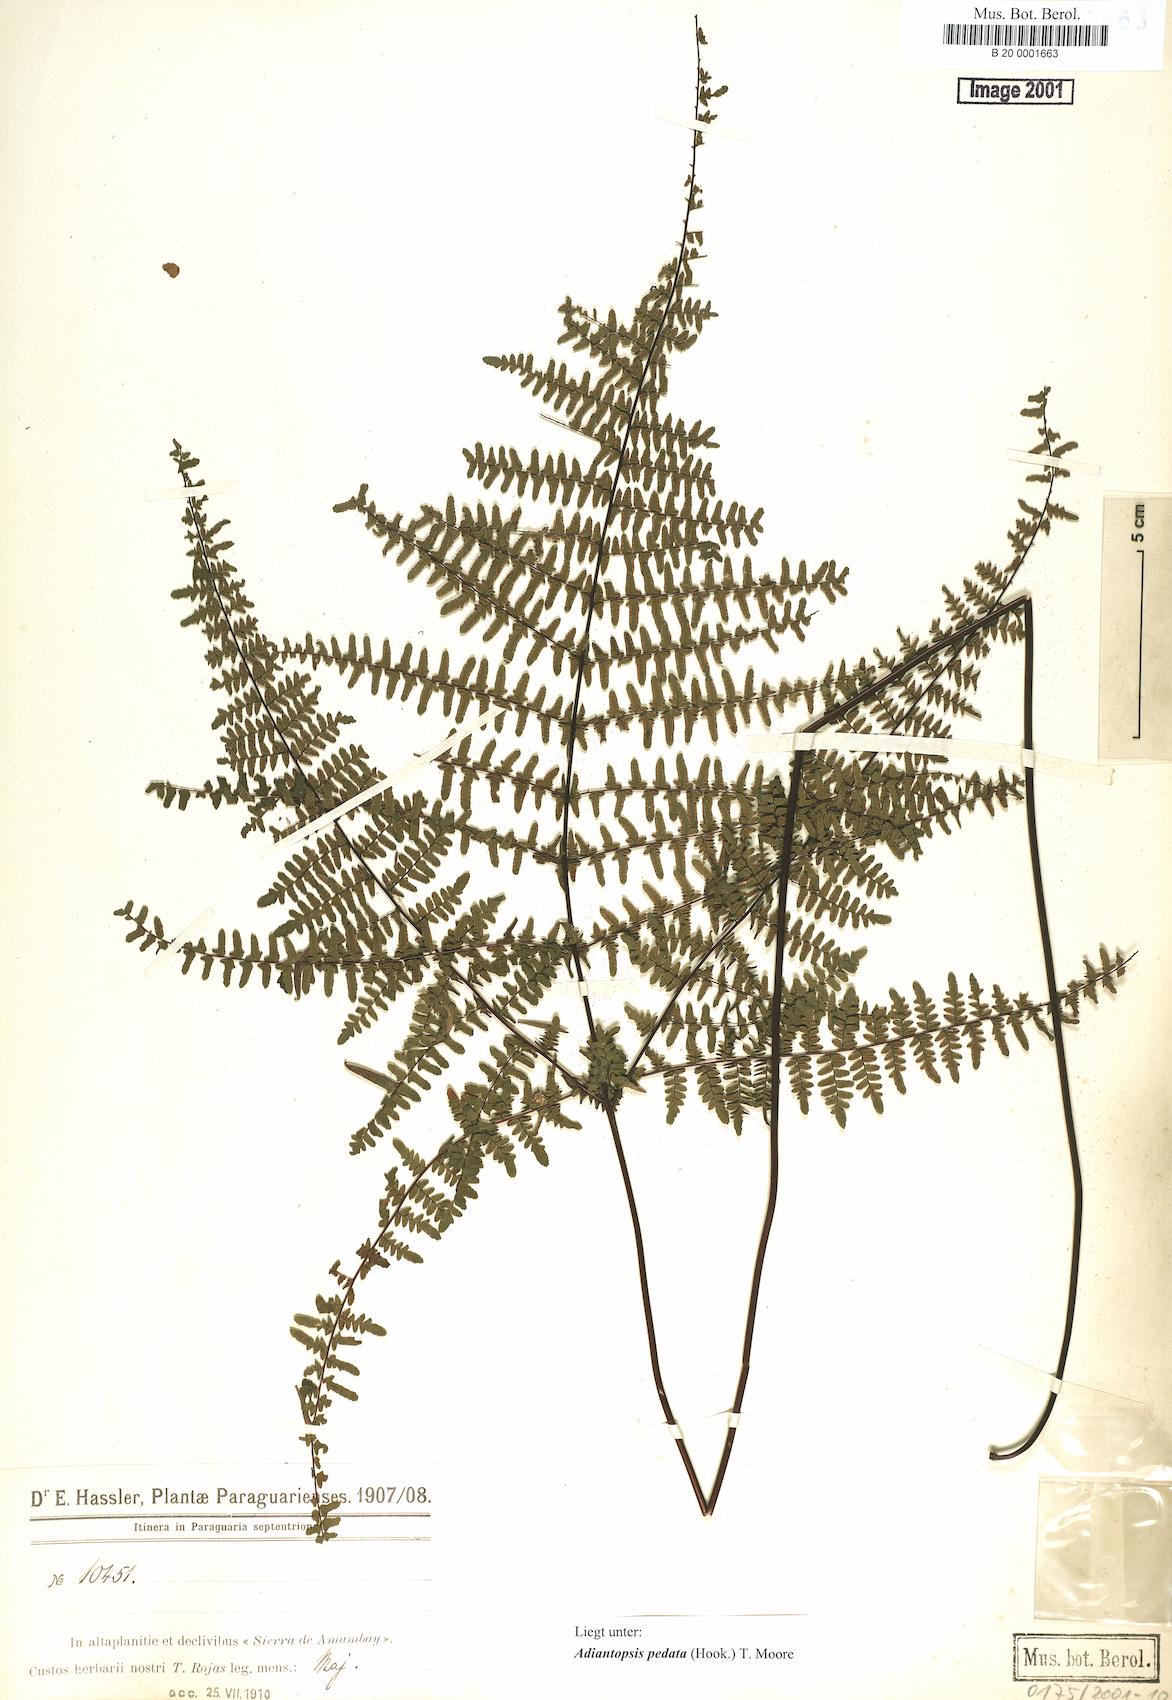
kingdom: Plantae
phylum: Tracheophyta
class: Polypodiopsida
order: Polypodiales
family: Pteridaceae
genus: Adiantopsis
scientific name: Adiantopsis australopedata
